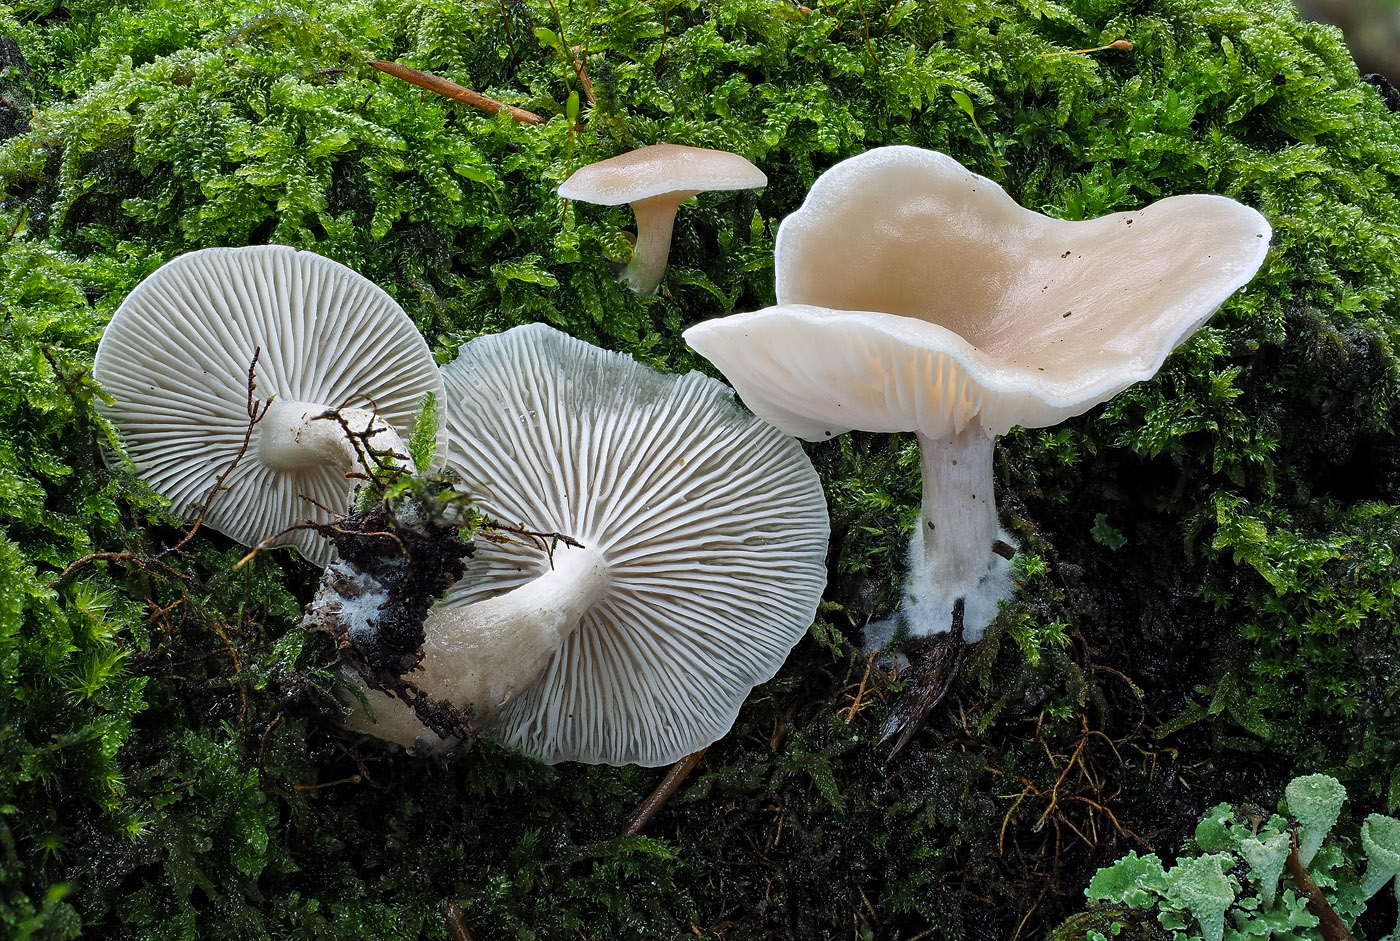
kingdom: Fungi
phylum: Basidiomycota
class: Agaricomycetes
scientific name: Agaricomycetes
